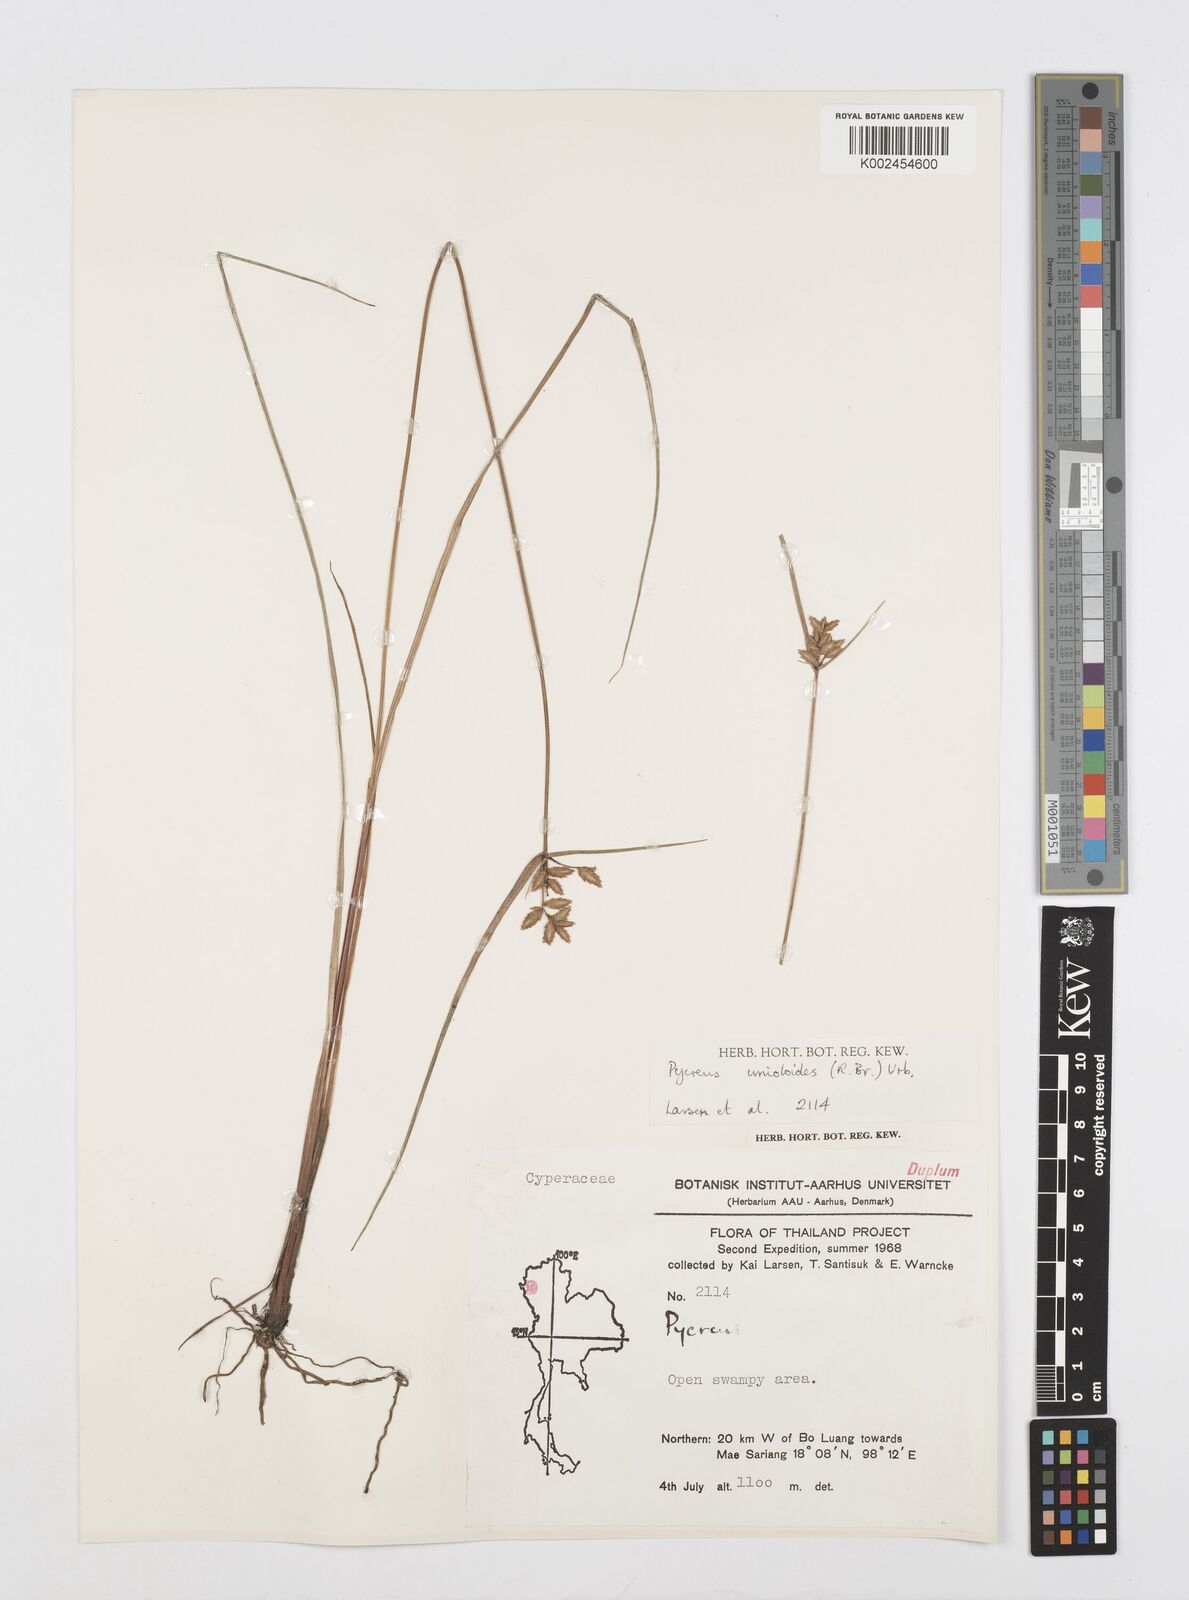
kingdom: Plantae
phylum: Tracheophyta
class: Liliopsida
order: Poales
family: Cyperaceae
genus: Cyperus
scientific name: Cyperus unioloides
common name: Uniola flatsedge
